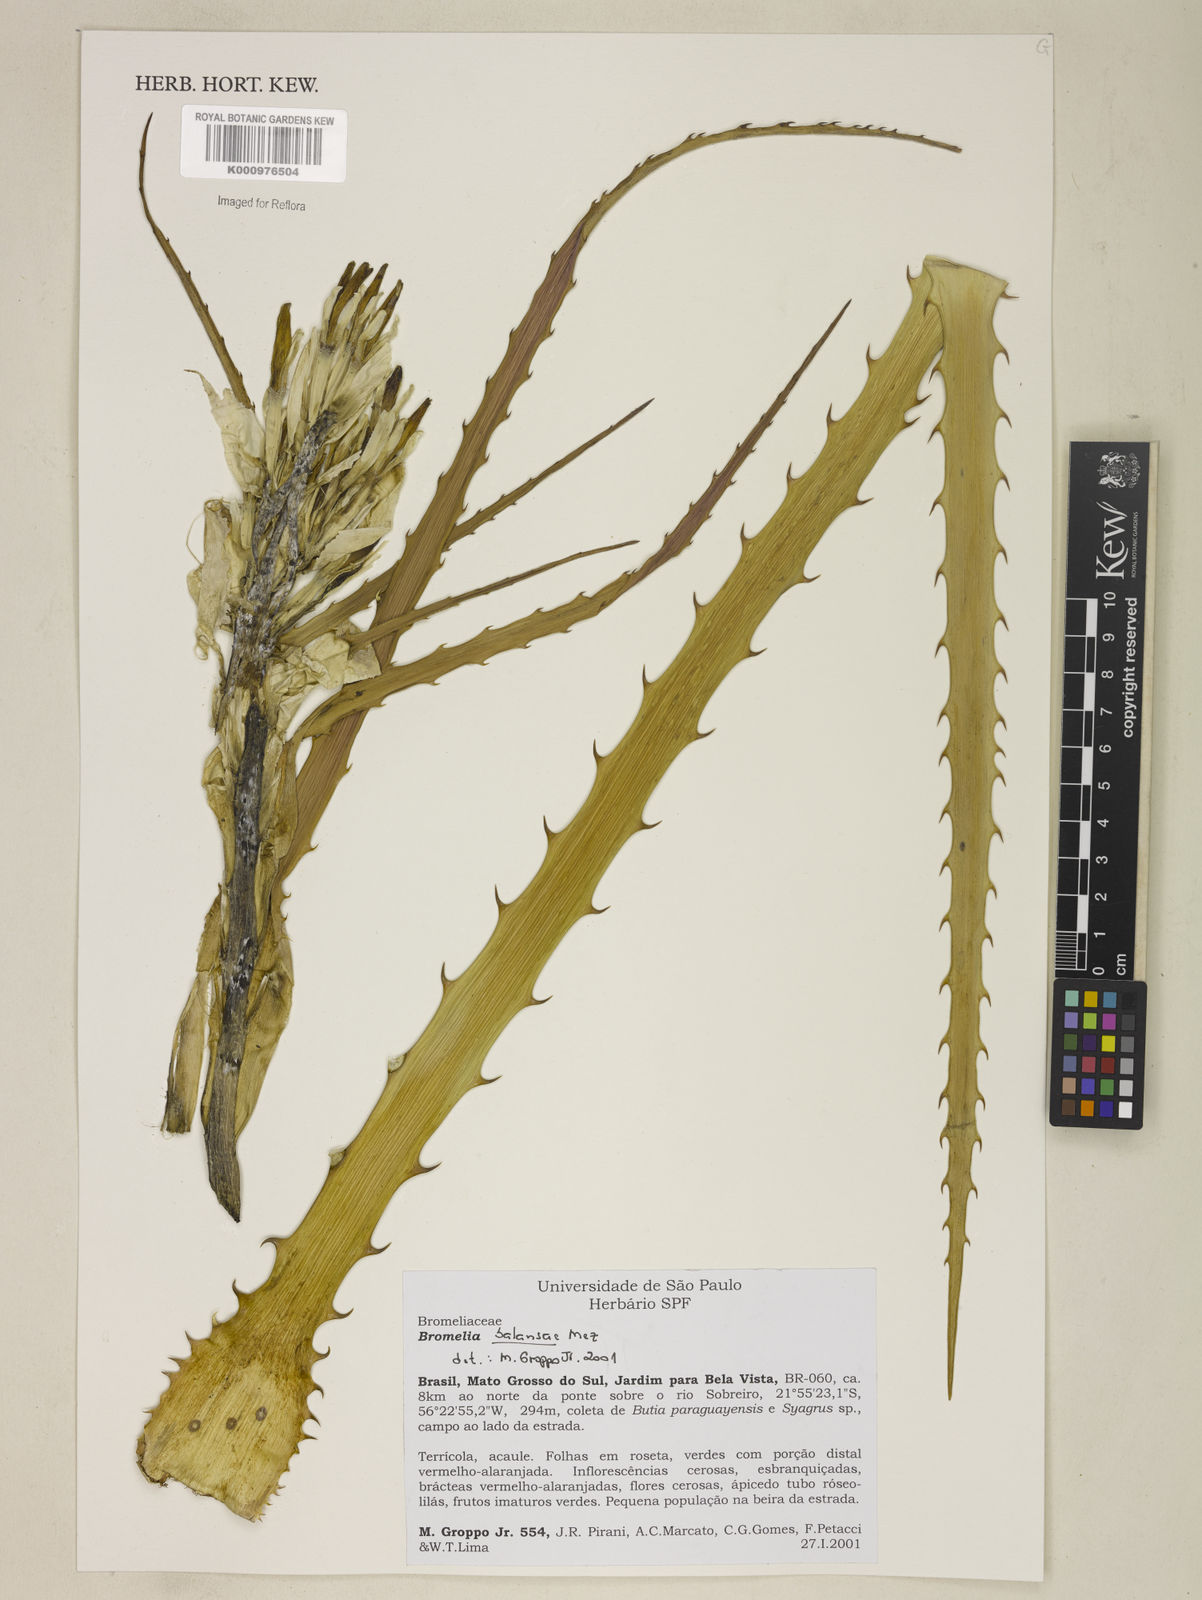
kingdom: Plantae
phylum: Tracheophyta
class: Liliopsida
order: Poales
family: Bromeliaceae
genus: Bromelia
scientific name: Bromelia balansae
